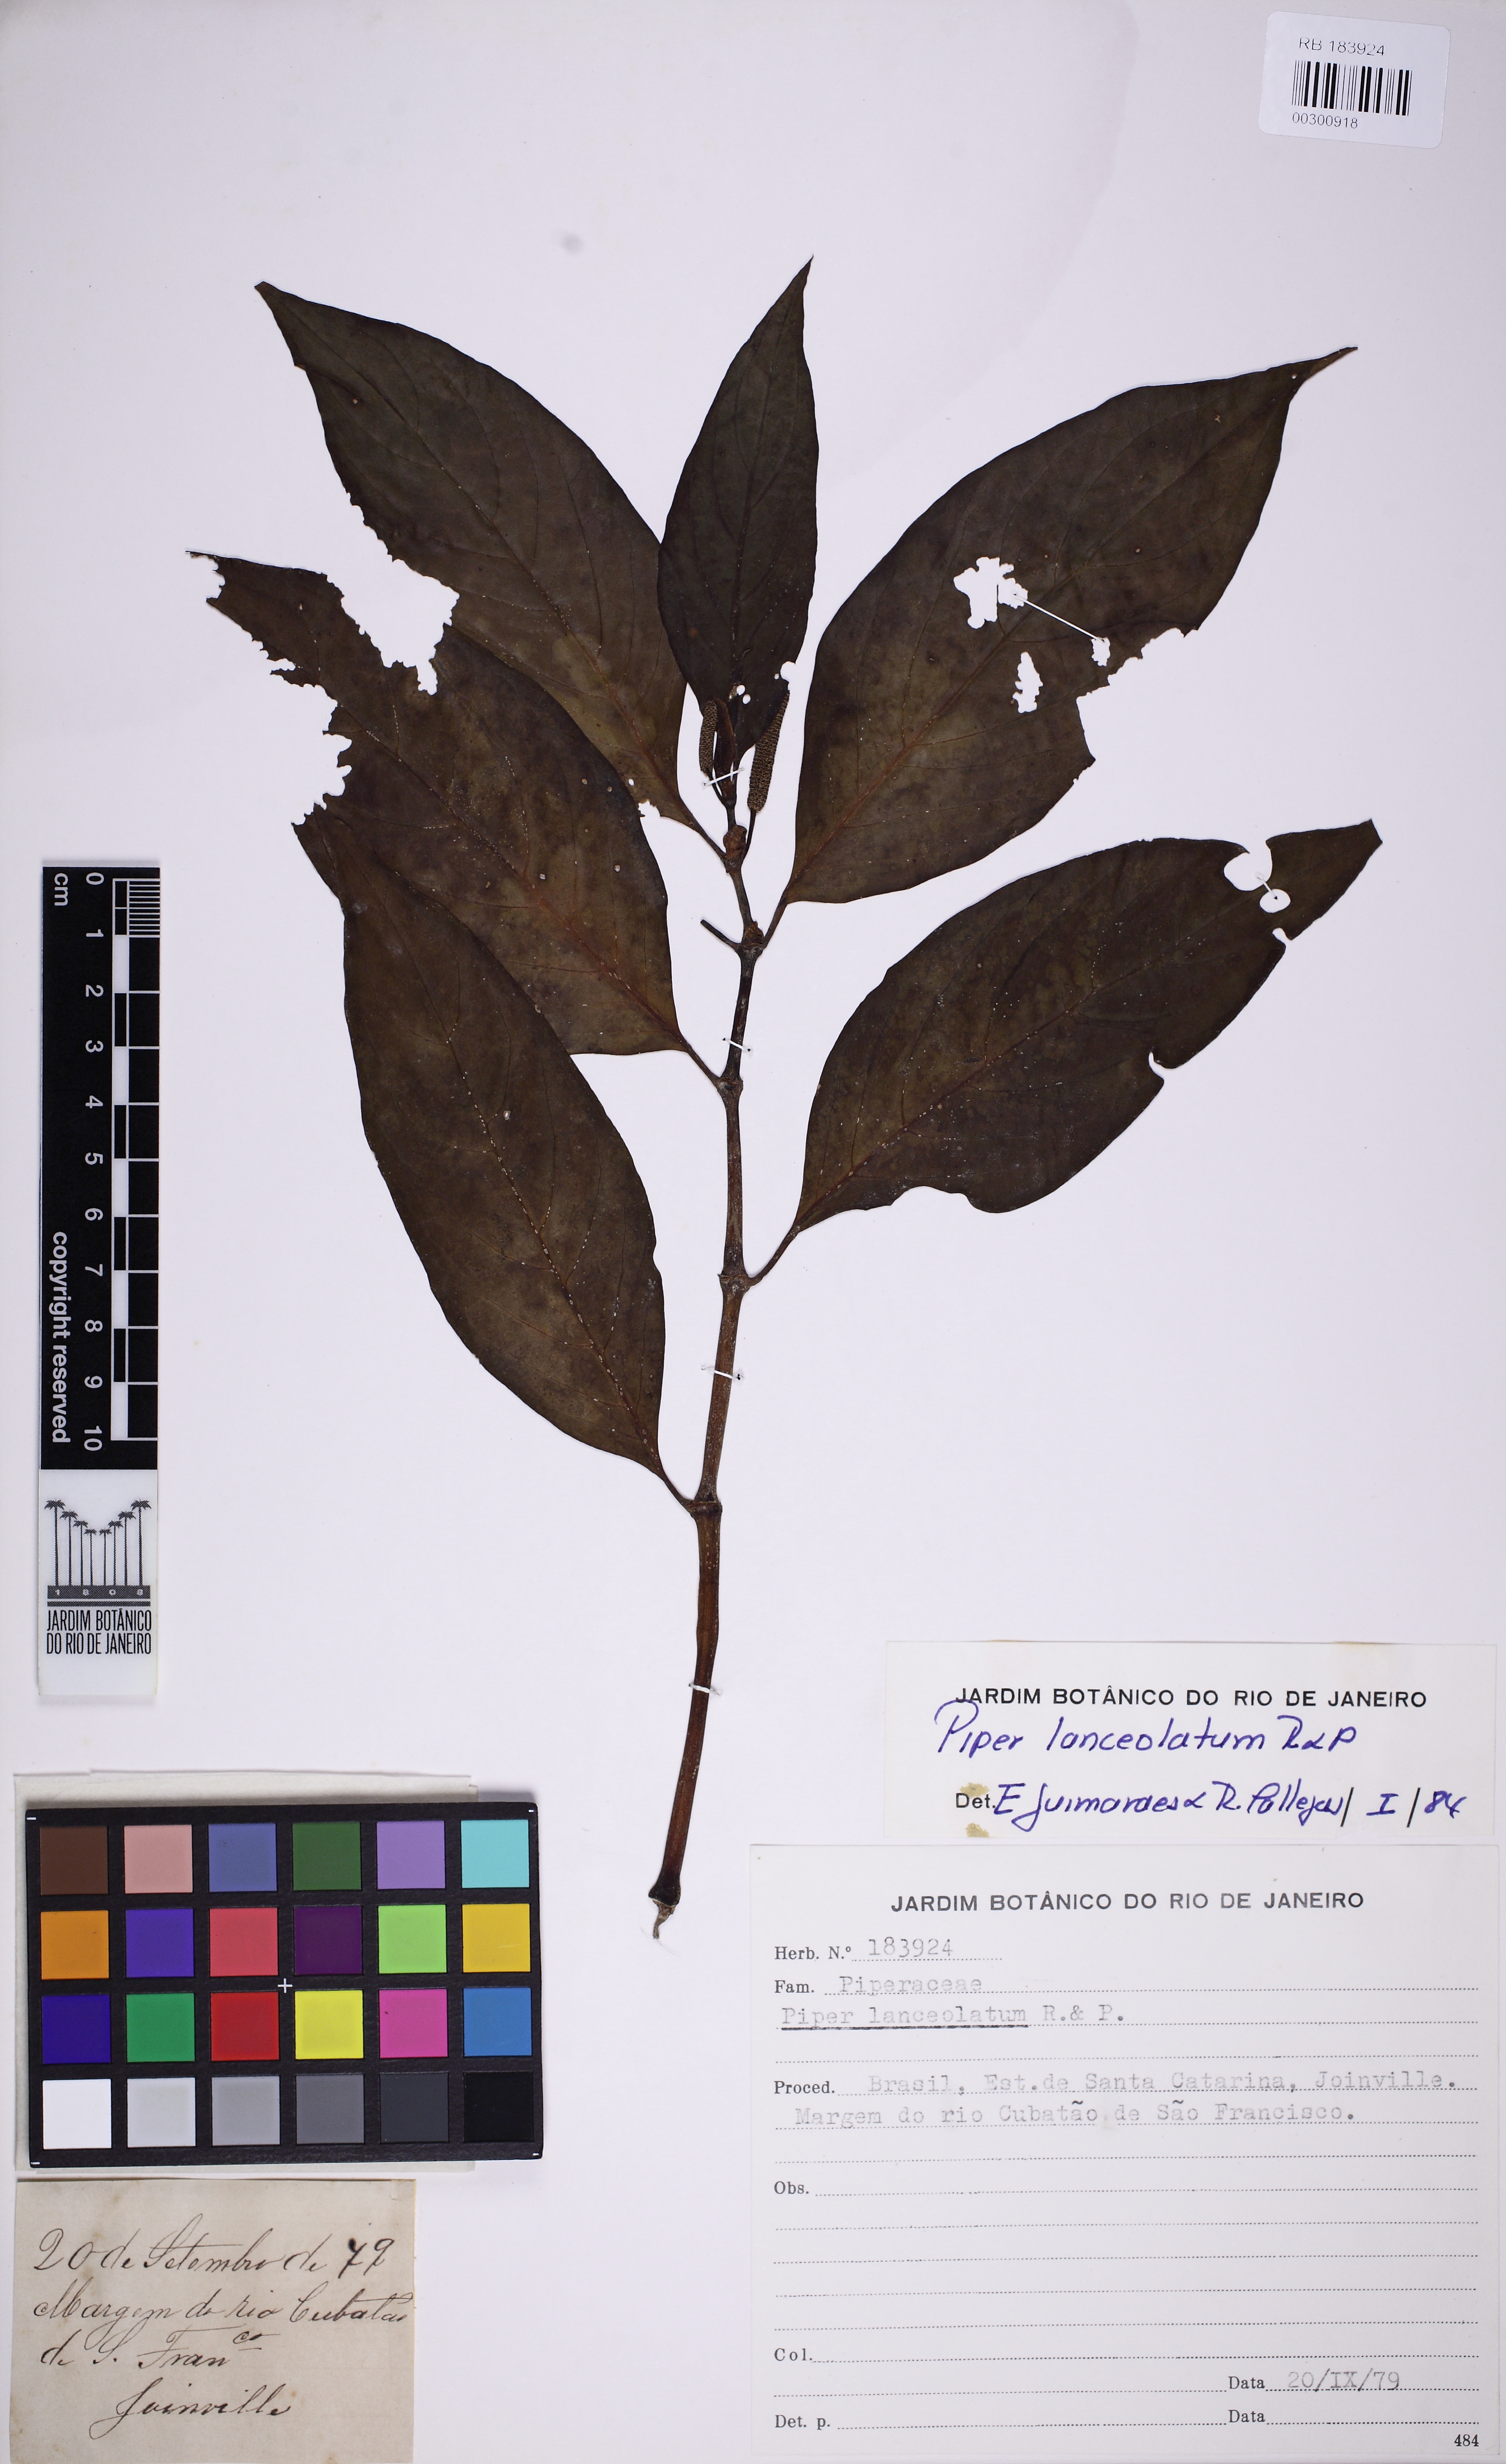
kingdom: Plantae
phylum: Tracheophyta
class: Magnoliopsida
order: Piperales
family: Piperaceae
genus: Piper
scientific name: Piper lanceolatum
